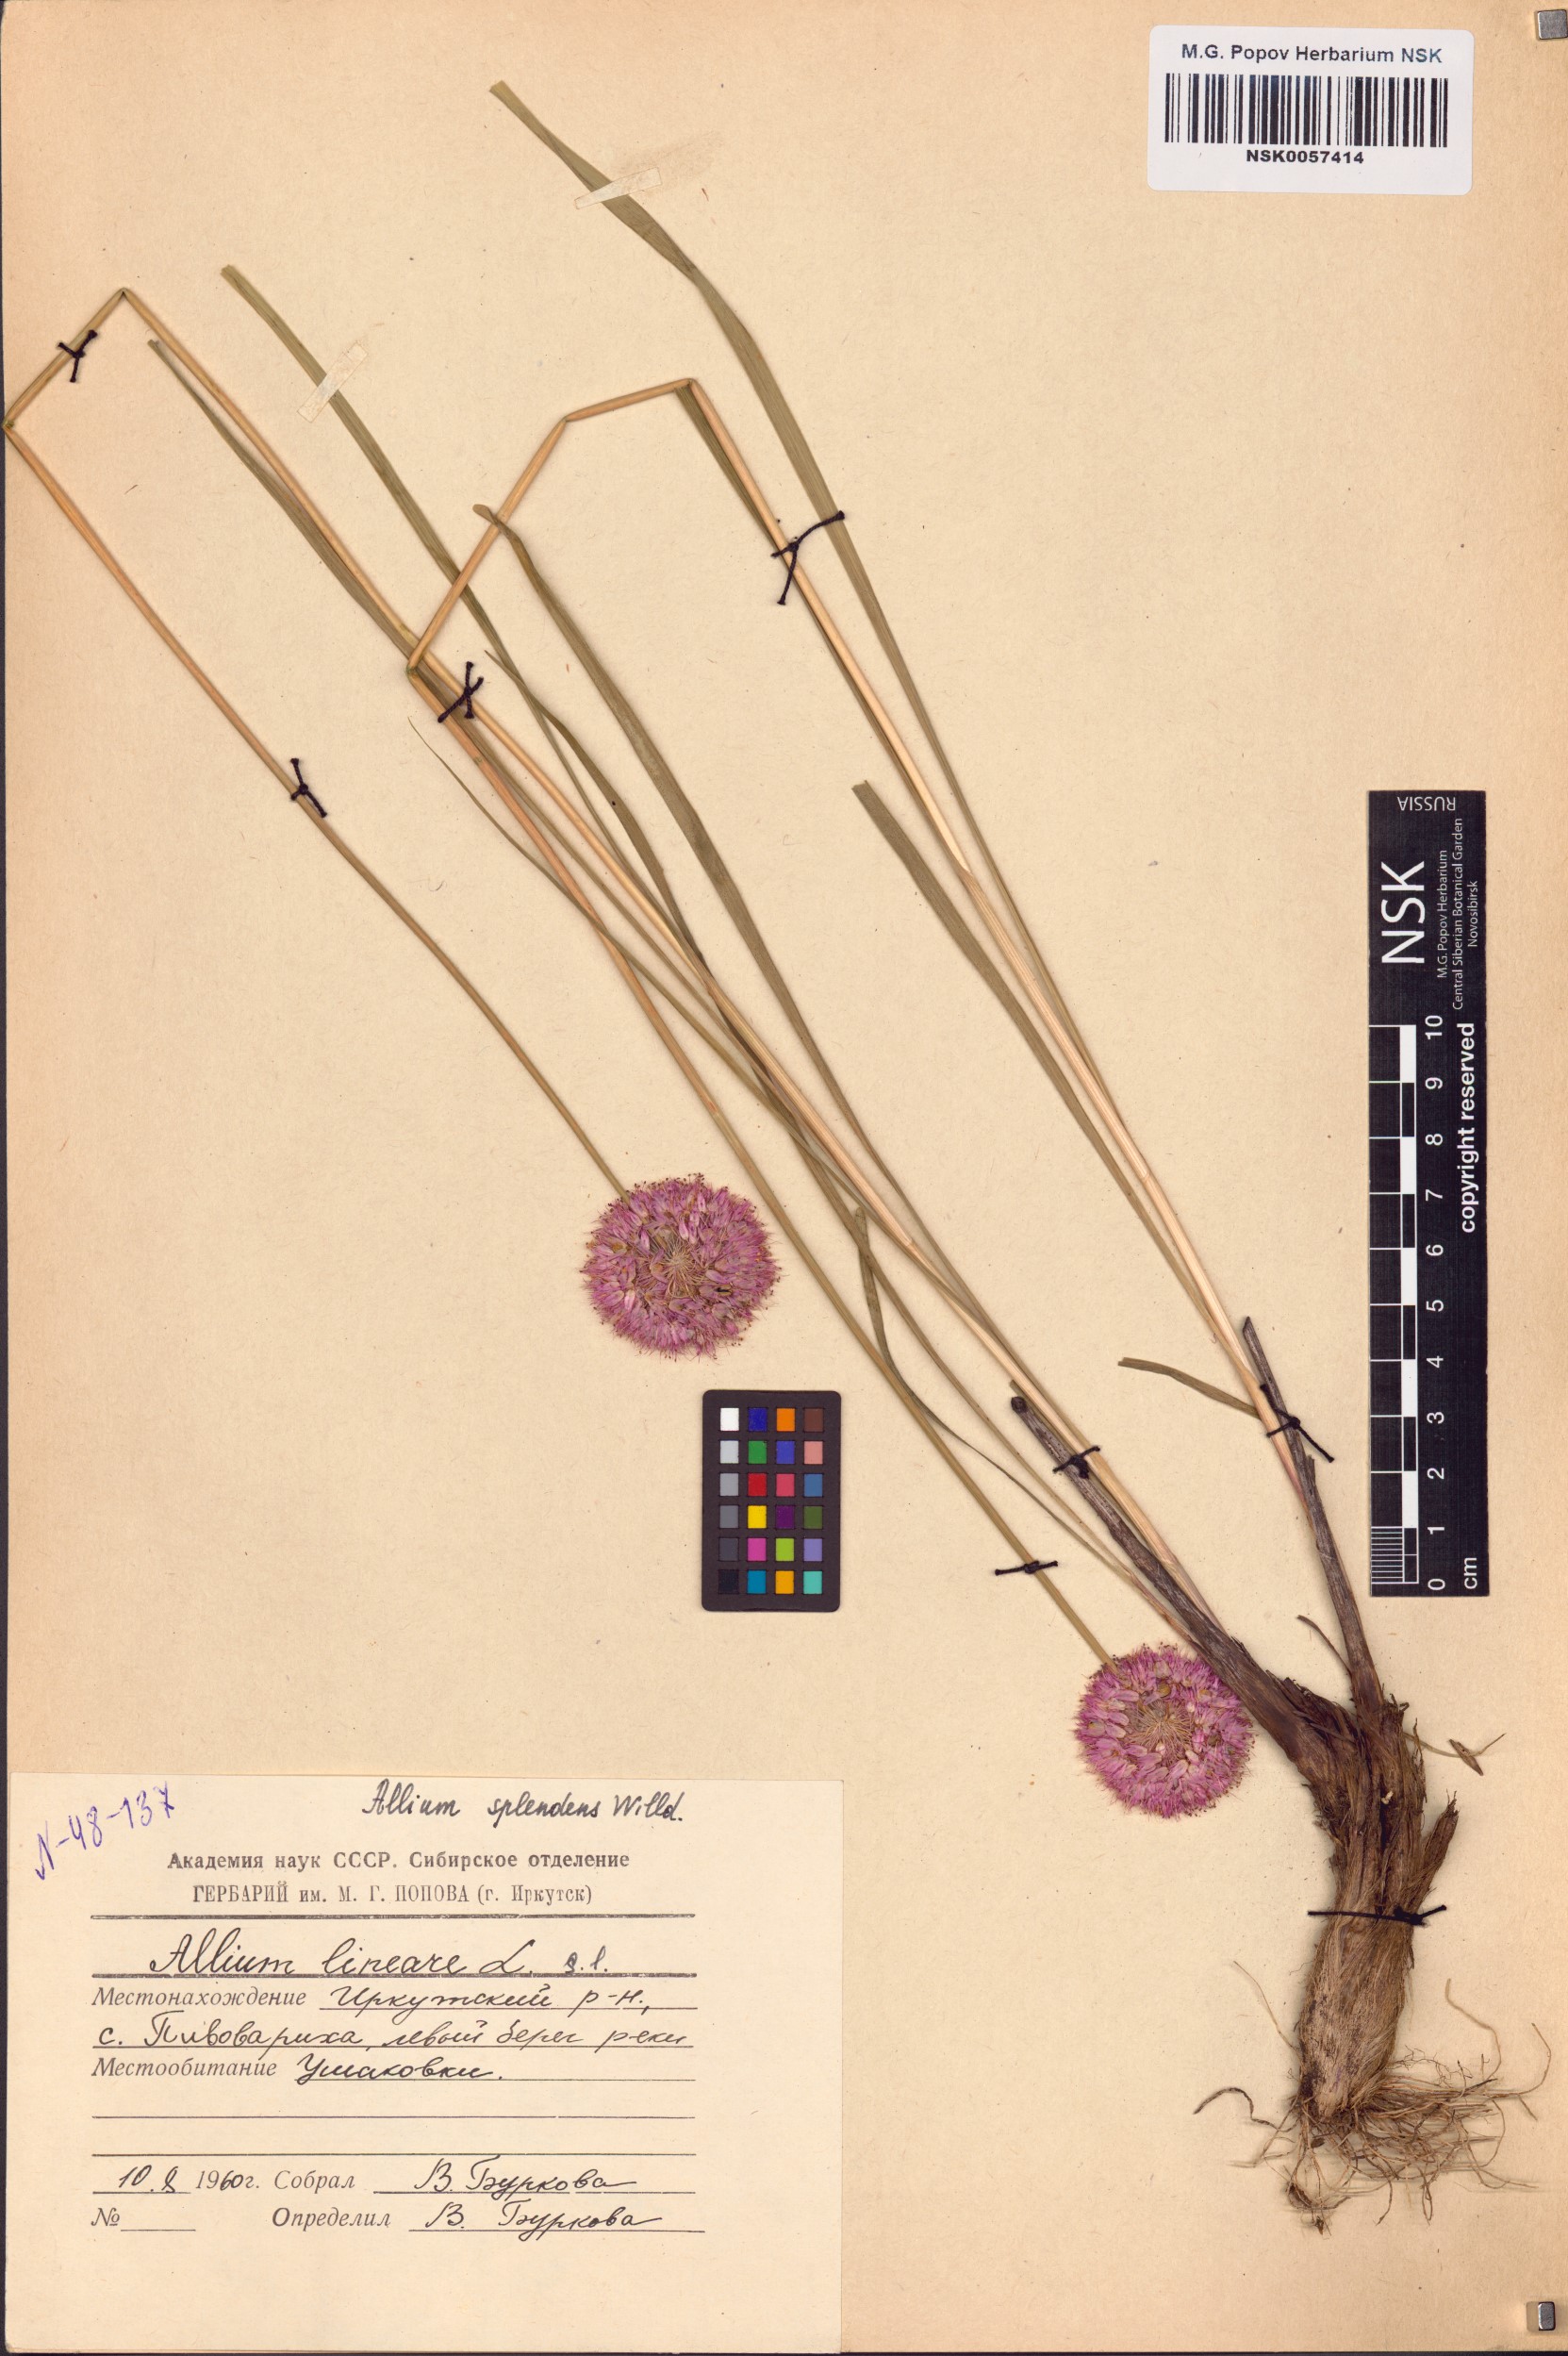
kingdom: Plantae
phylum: Tracheophyta
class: Liliopsida
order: Asparagales
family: Amaryllidaceae
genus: Allium
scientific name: Allium splendens
